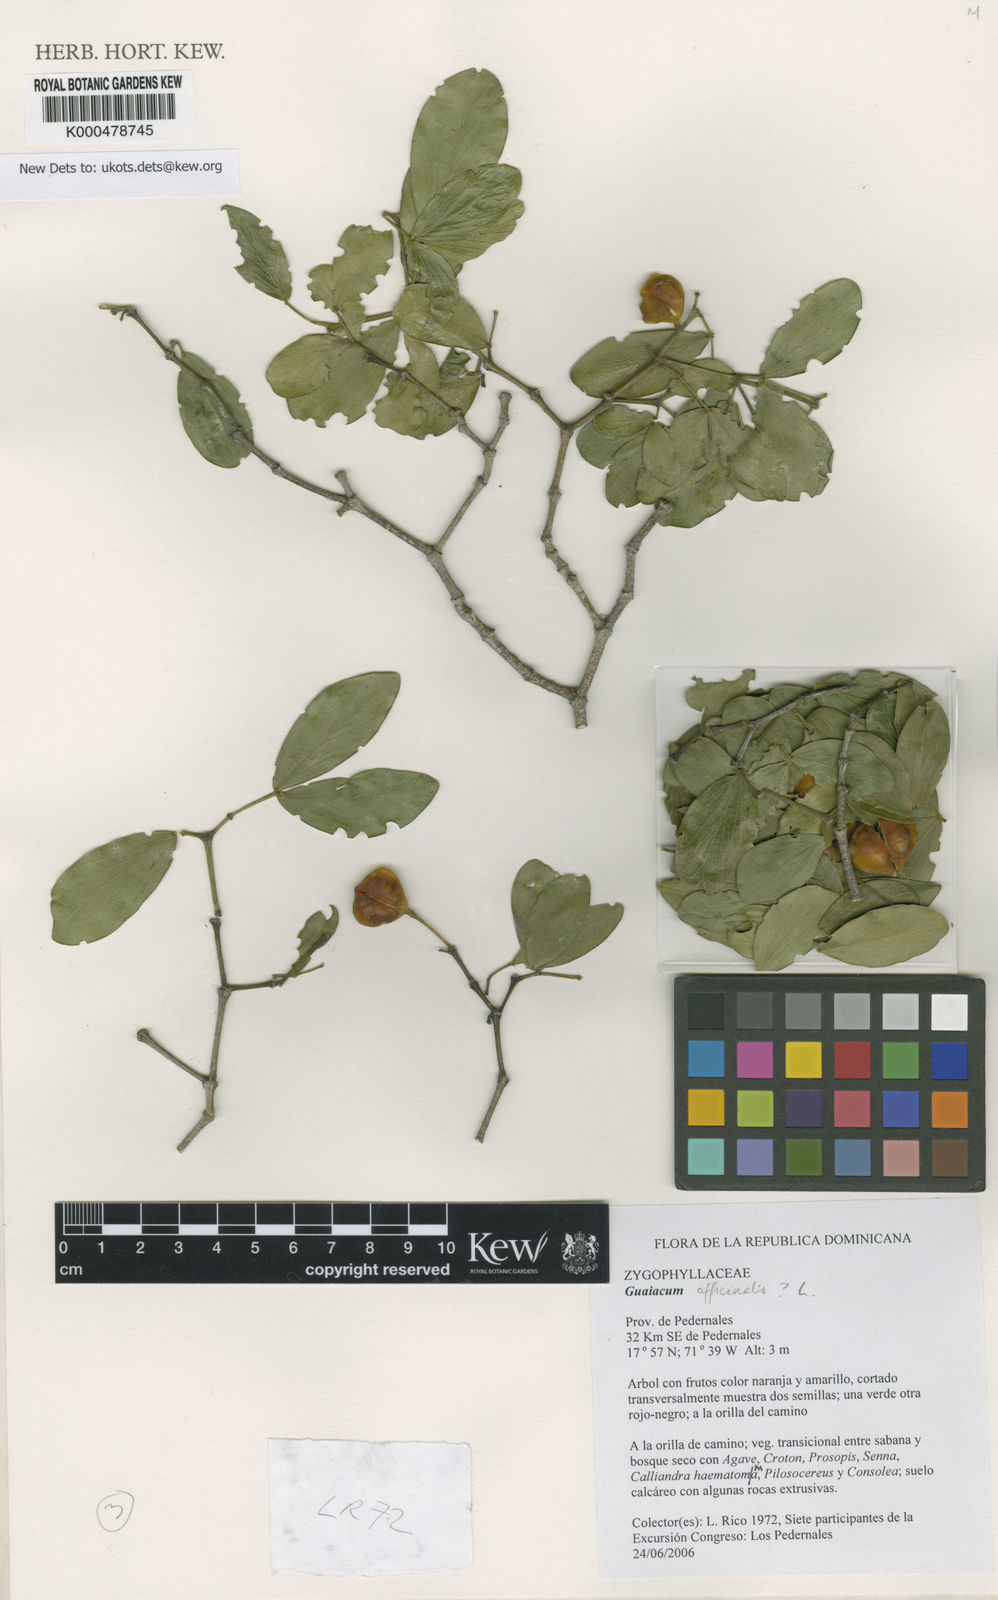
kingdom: Plantae
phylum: Tracheophyta
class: Magnoliopsida
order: Zygophyllales
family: Zygophyllaceae
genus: Guaiacum
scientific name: Guaiacum
